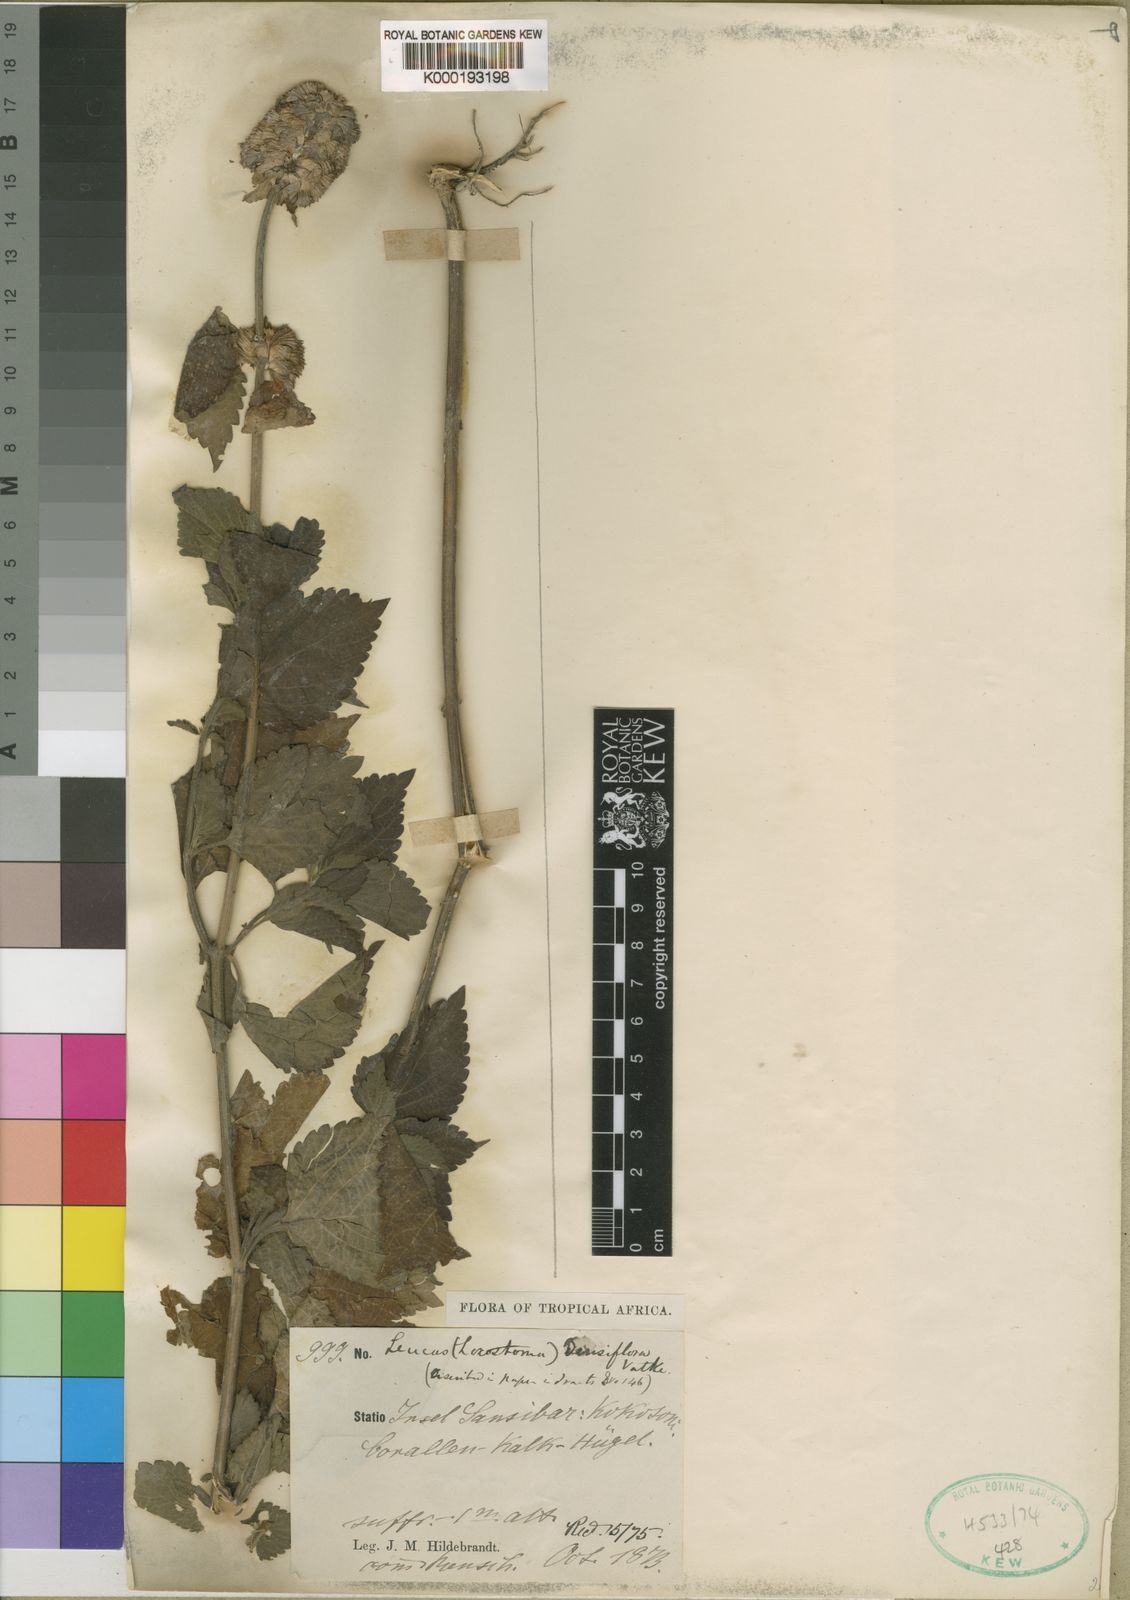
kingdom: Plantae
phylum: Tracheophyta
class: Magnoliopsida
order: Lamiales
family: Lamiaceae
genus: Leucas
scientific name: Leucas densiflora
